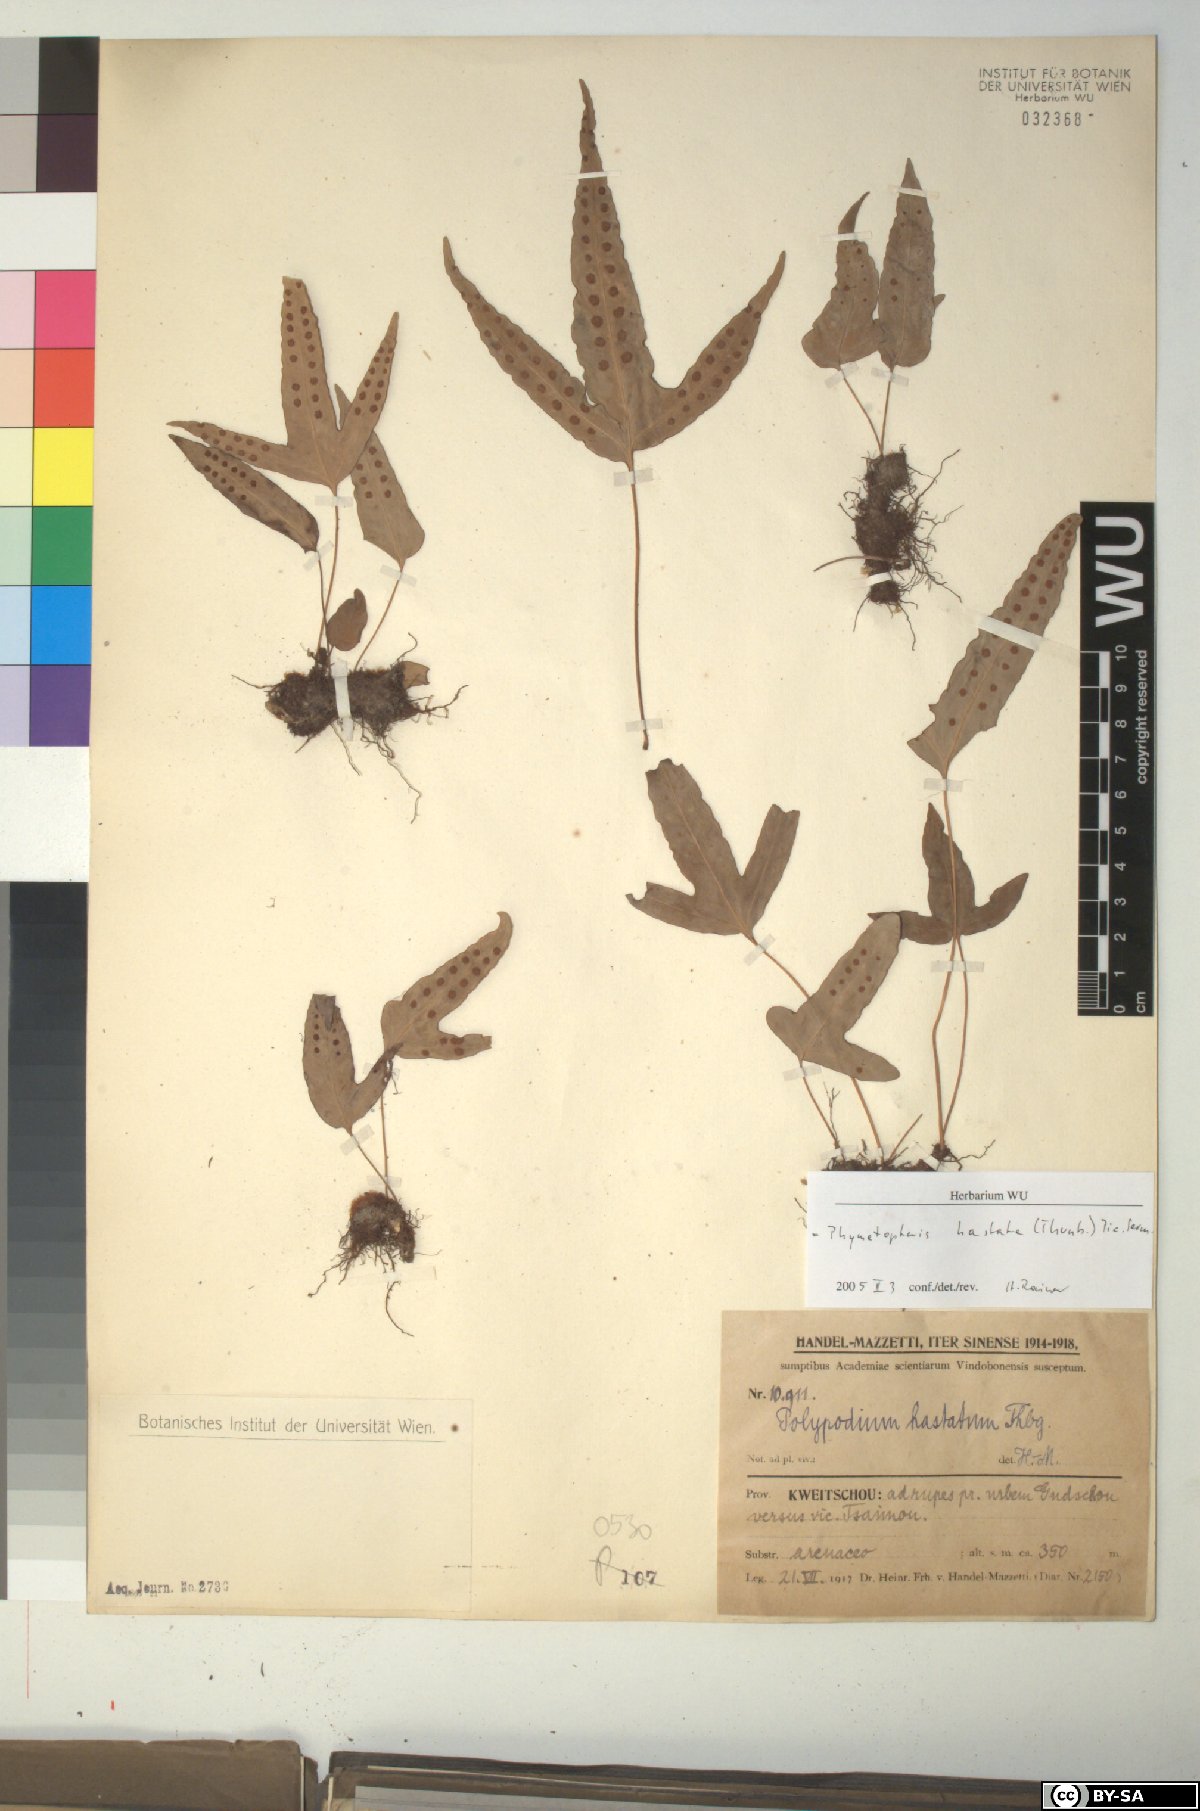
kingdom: Plantae
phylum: Tracheophyta
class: Polypodiopsida
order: Polypodiales
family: Polypodiaceae
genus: Selliguea
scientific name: Selliguea hastata
